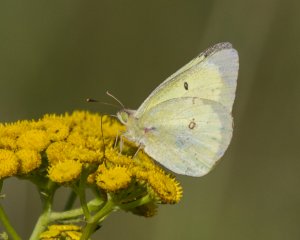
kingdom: Animalia
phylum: Arthropoda
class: Insecta
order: Lepidoptera
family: Pieridae
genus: Colias
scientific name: Colias philodice
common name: Clouded Sulphur
